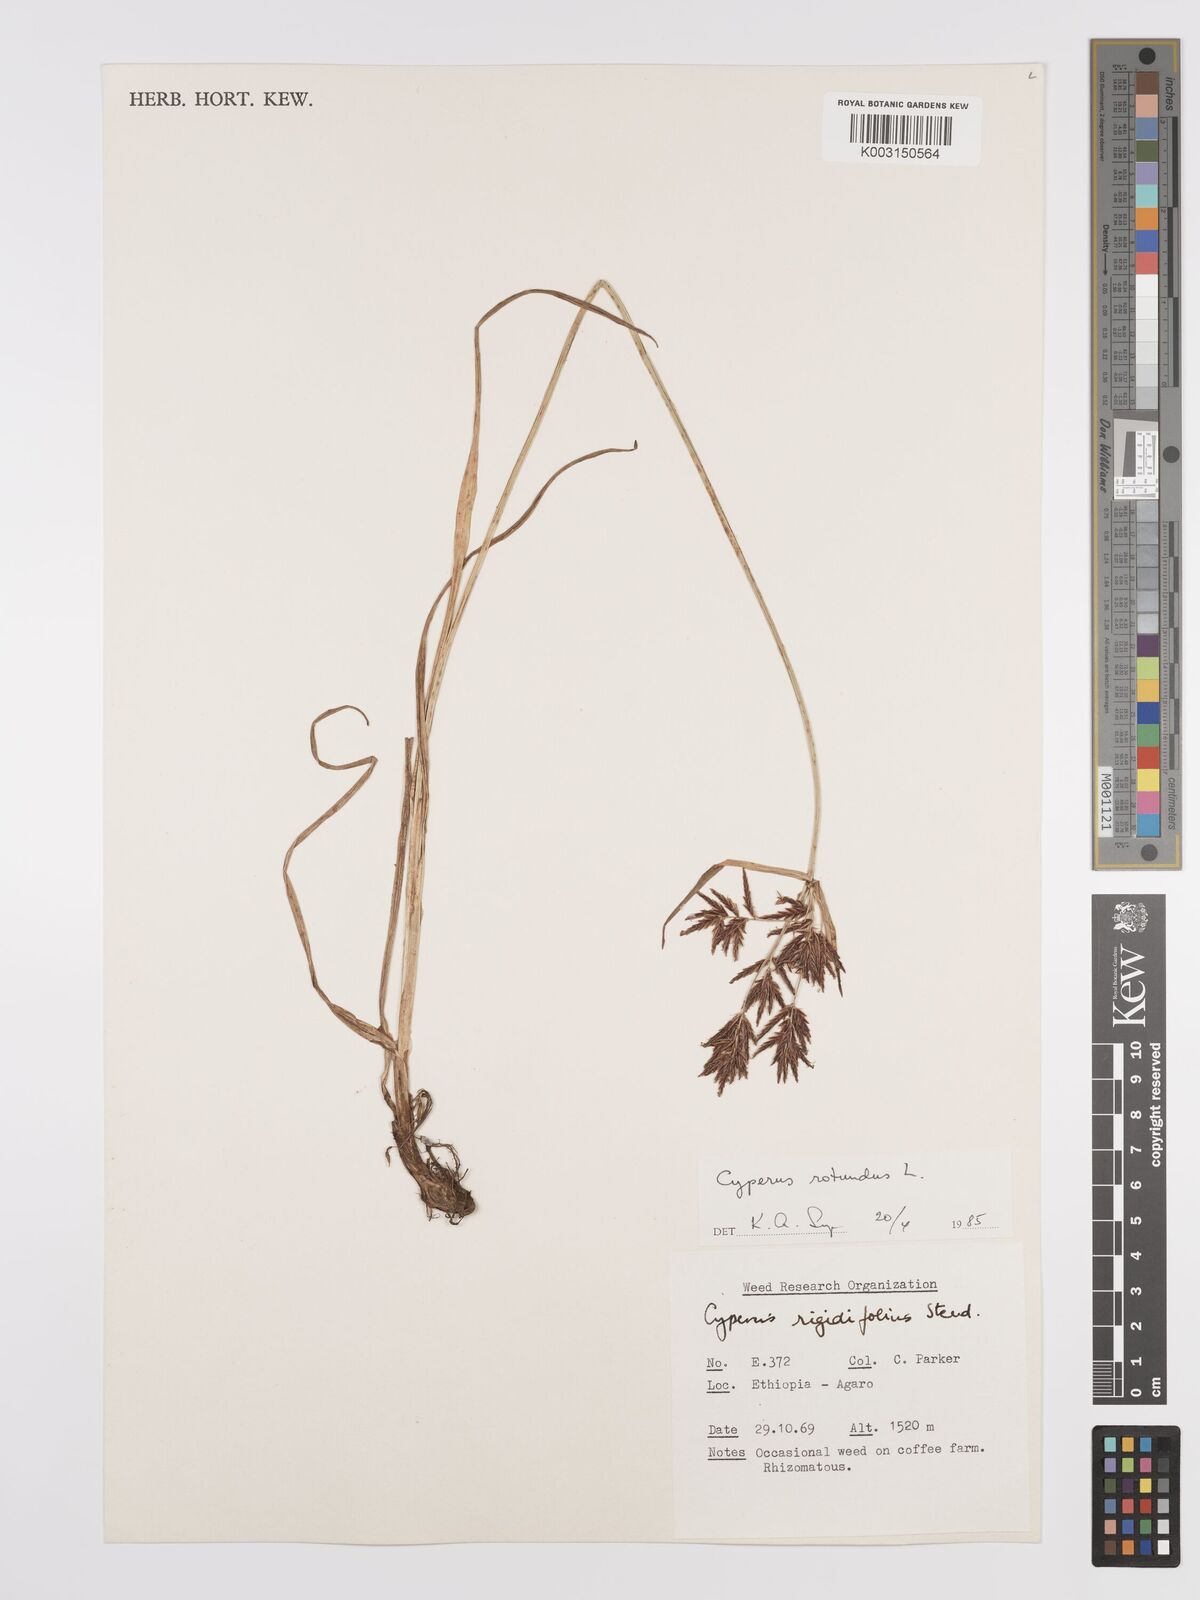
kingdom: Plantae
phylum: Tracheophyta
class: Liliopsida
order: Poales
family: Cyperaceae
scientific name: Cyperaceae
